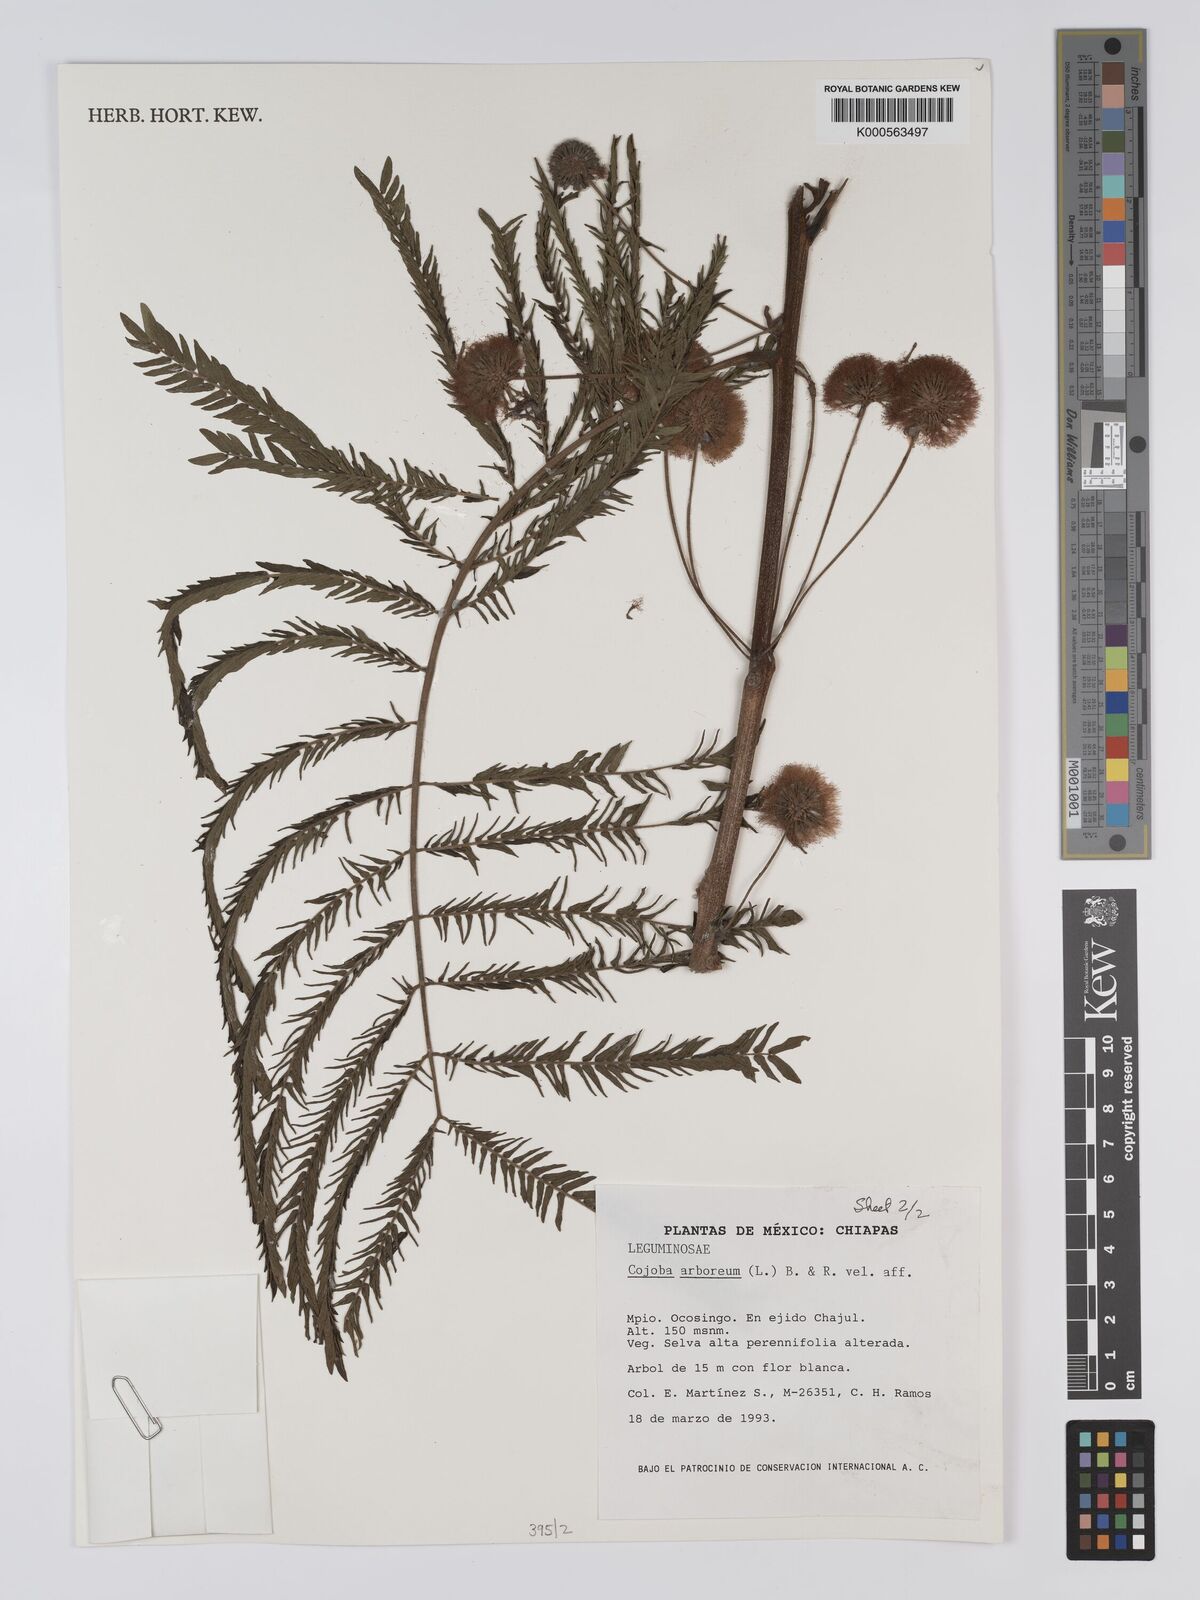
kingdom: Plantae
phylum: Tracheophyta
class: Magnoliopsida
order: Fabales
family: Fabaceae
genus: Cojoba
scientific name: Cojoba arborea
